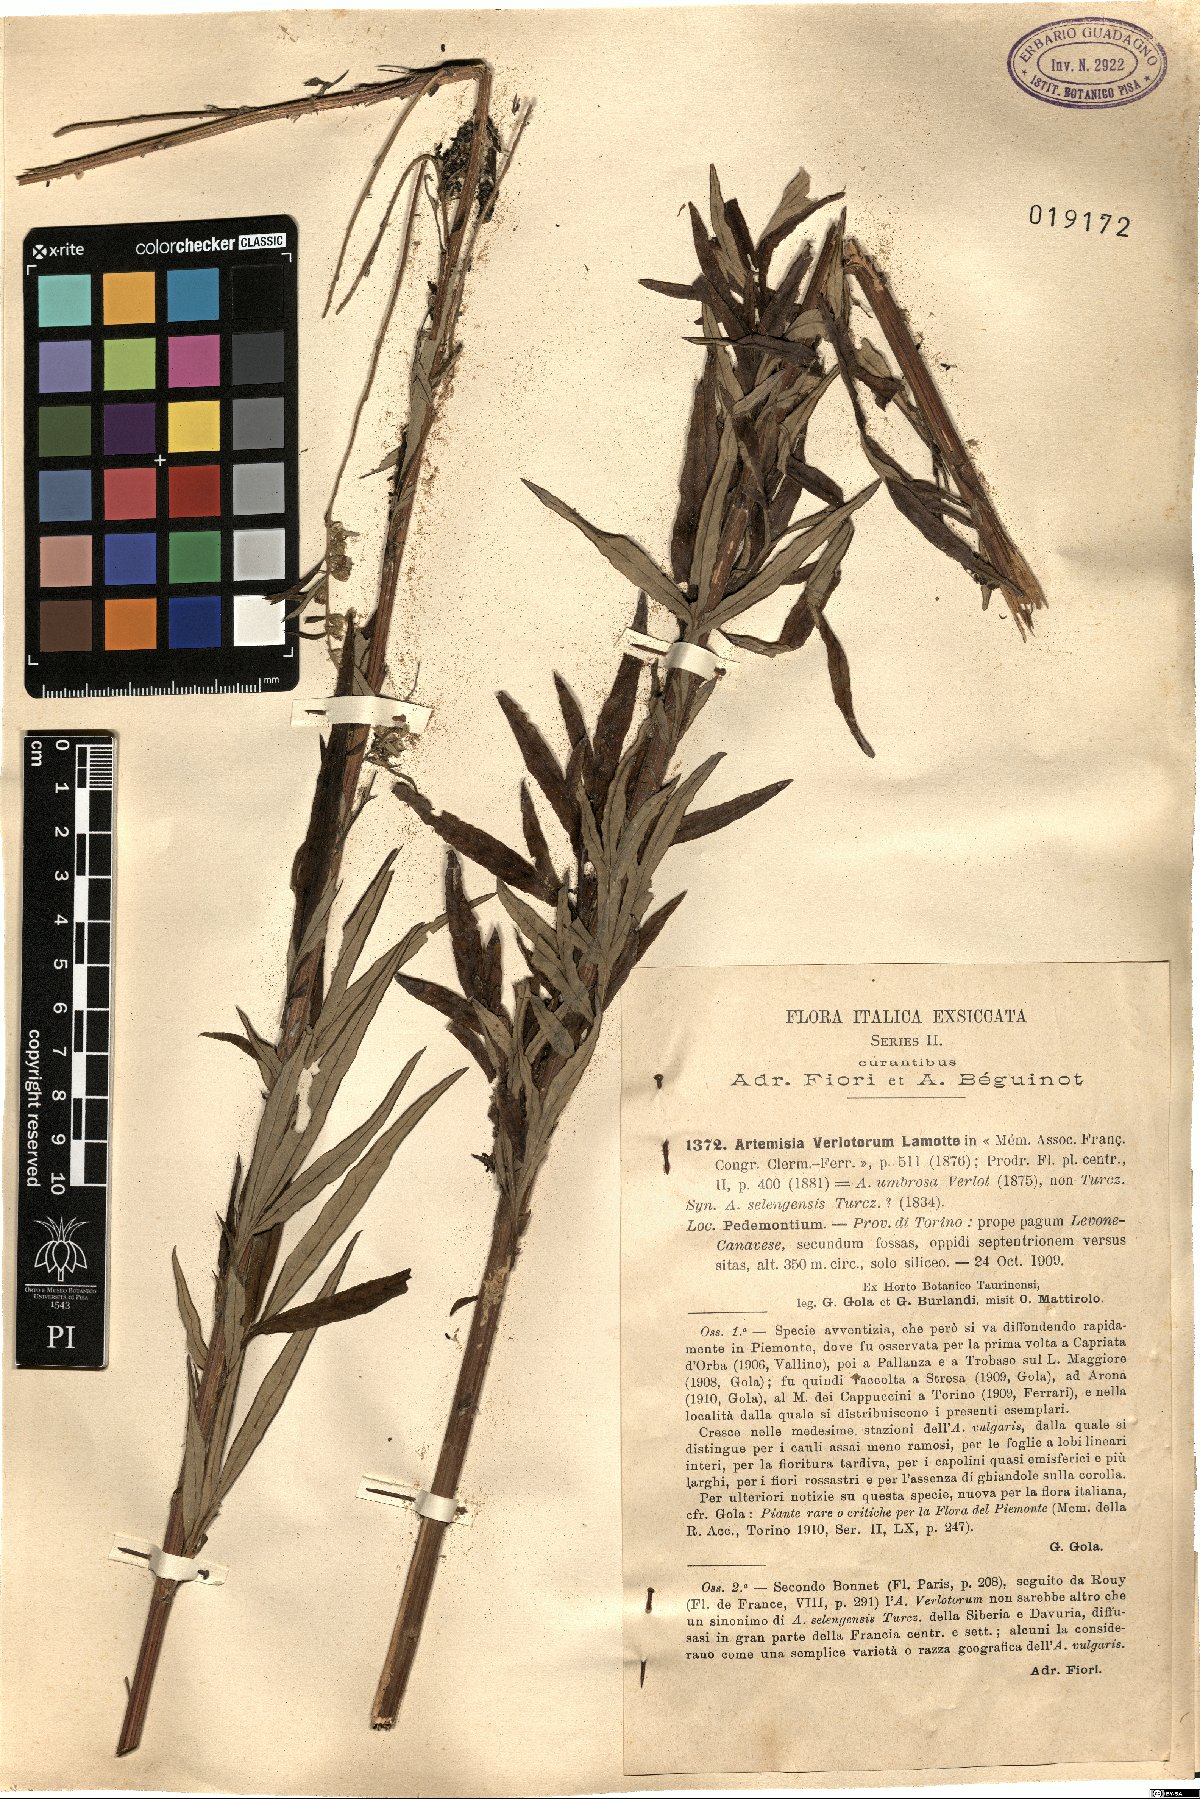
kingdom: Plantae
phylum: Tracheophyta
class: Magnoliopsida
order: Asterales
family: Asteraceae
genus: Artemisia
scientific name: Artemisia verlotiorum
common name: Chinese mugwort
